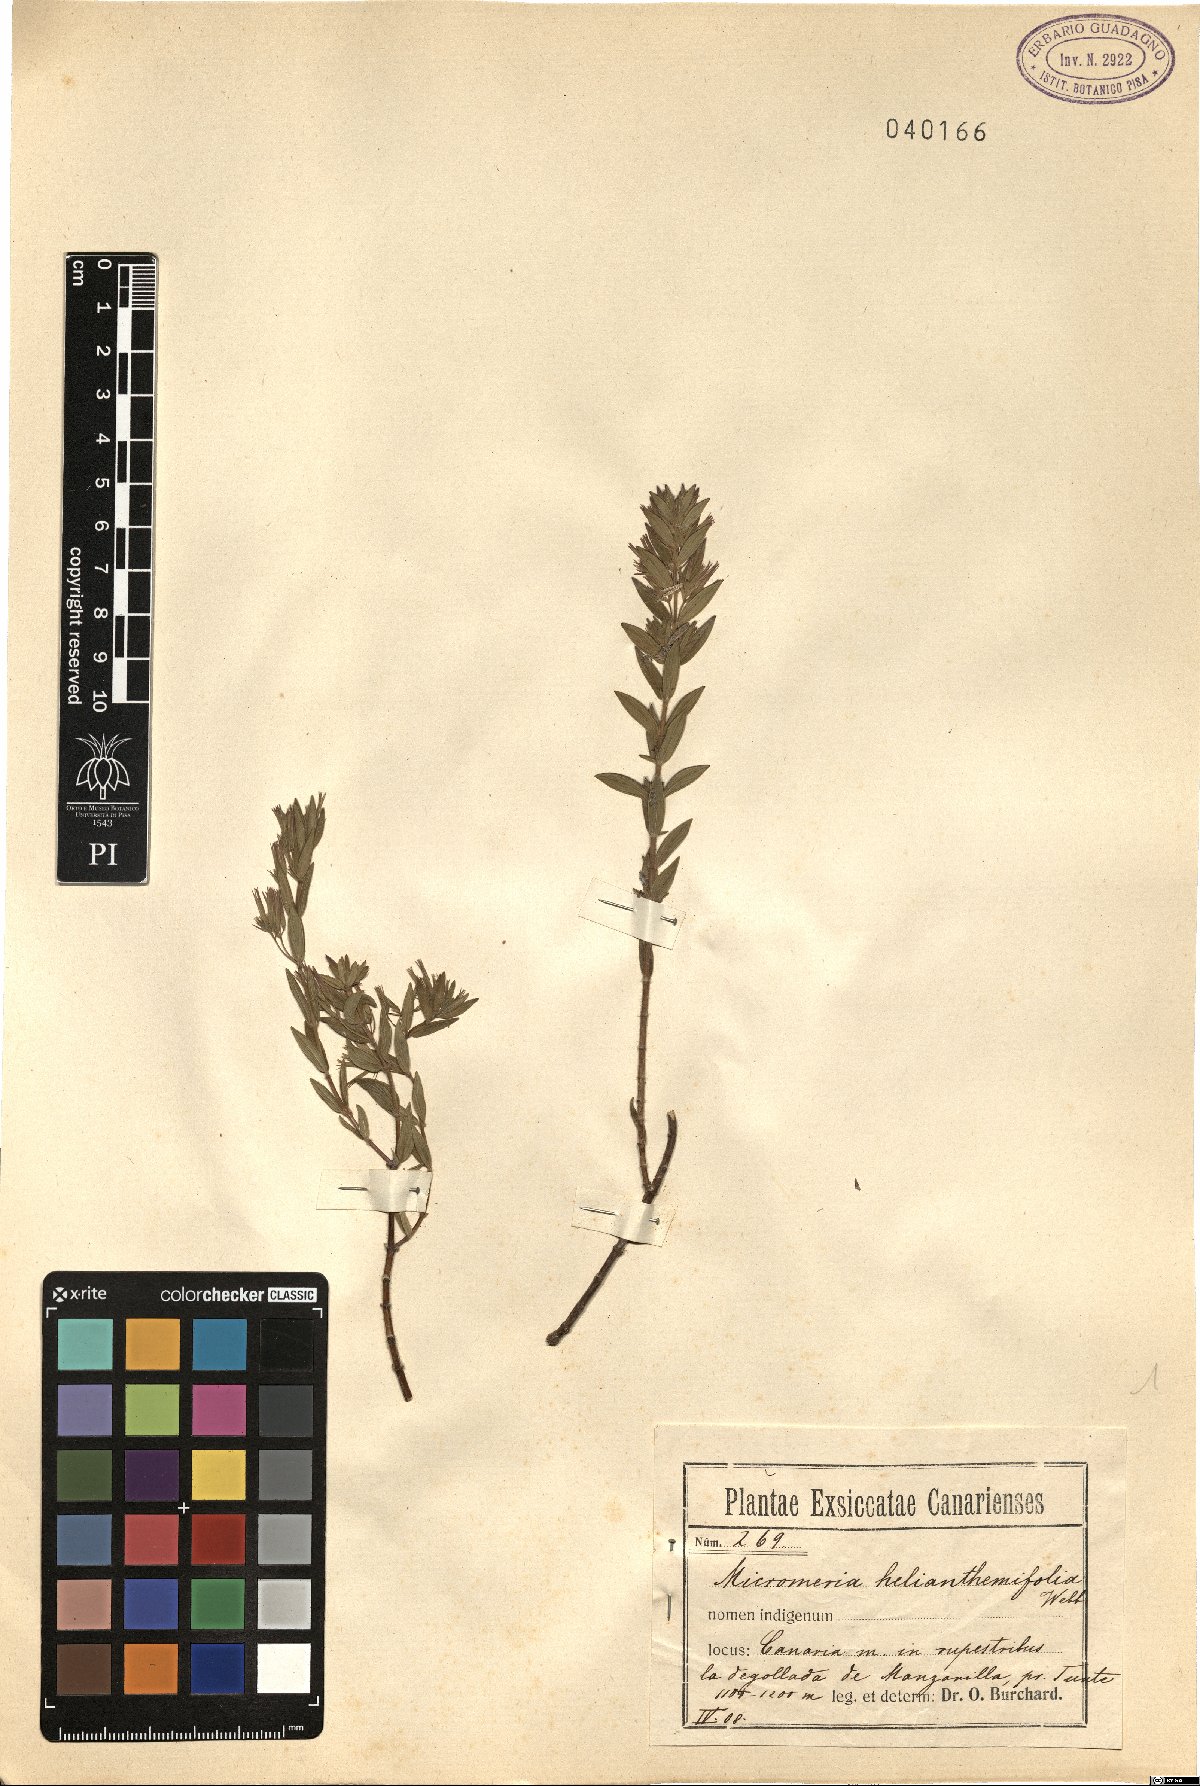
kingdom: Plantae
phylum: Tracheophyta
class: Magnoliopsida
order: Lamiales
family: Lamiaceae
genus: Micromeria
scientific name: Micromeria helianthemifolia
